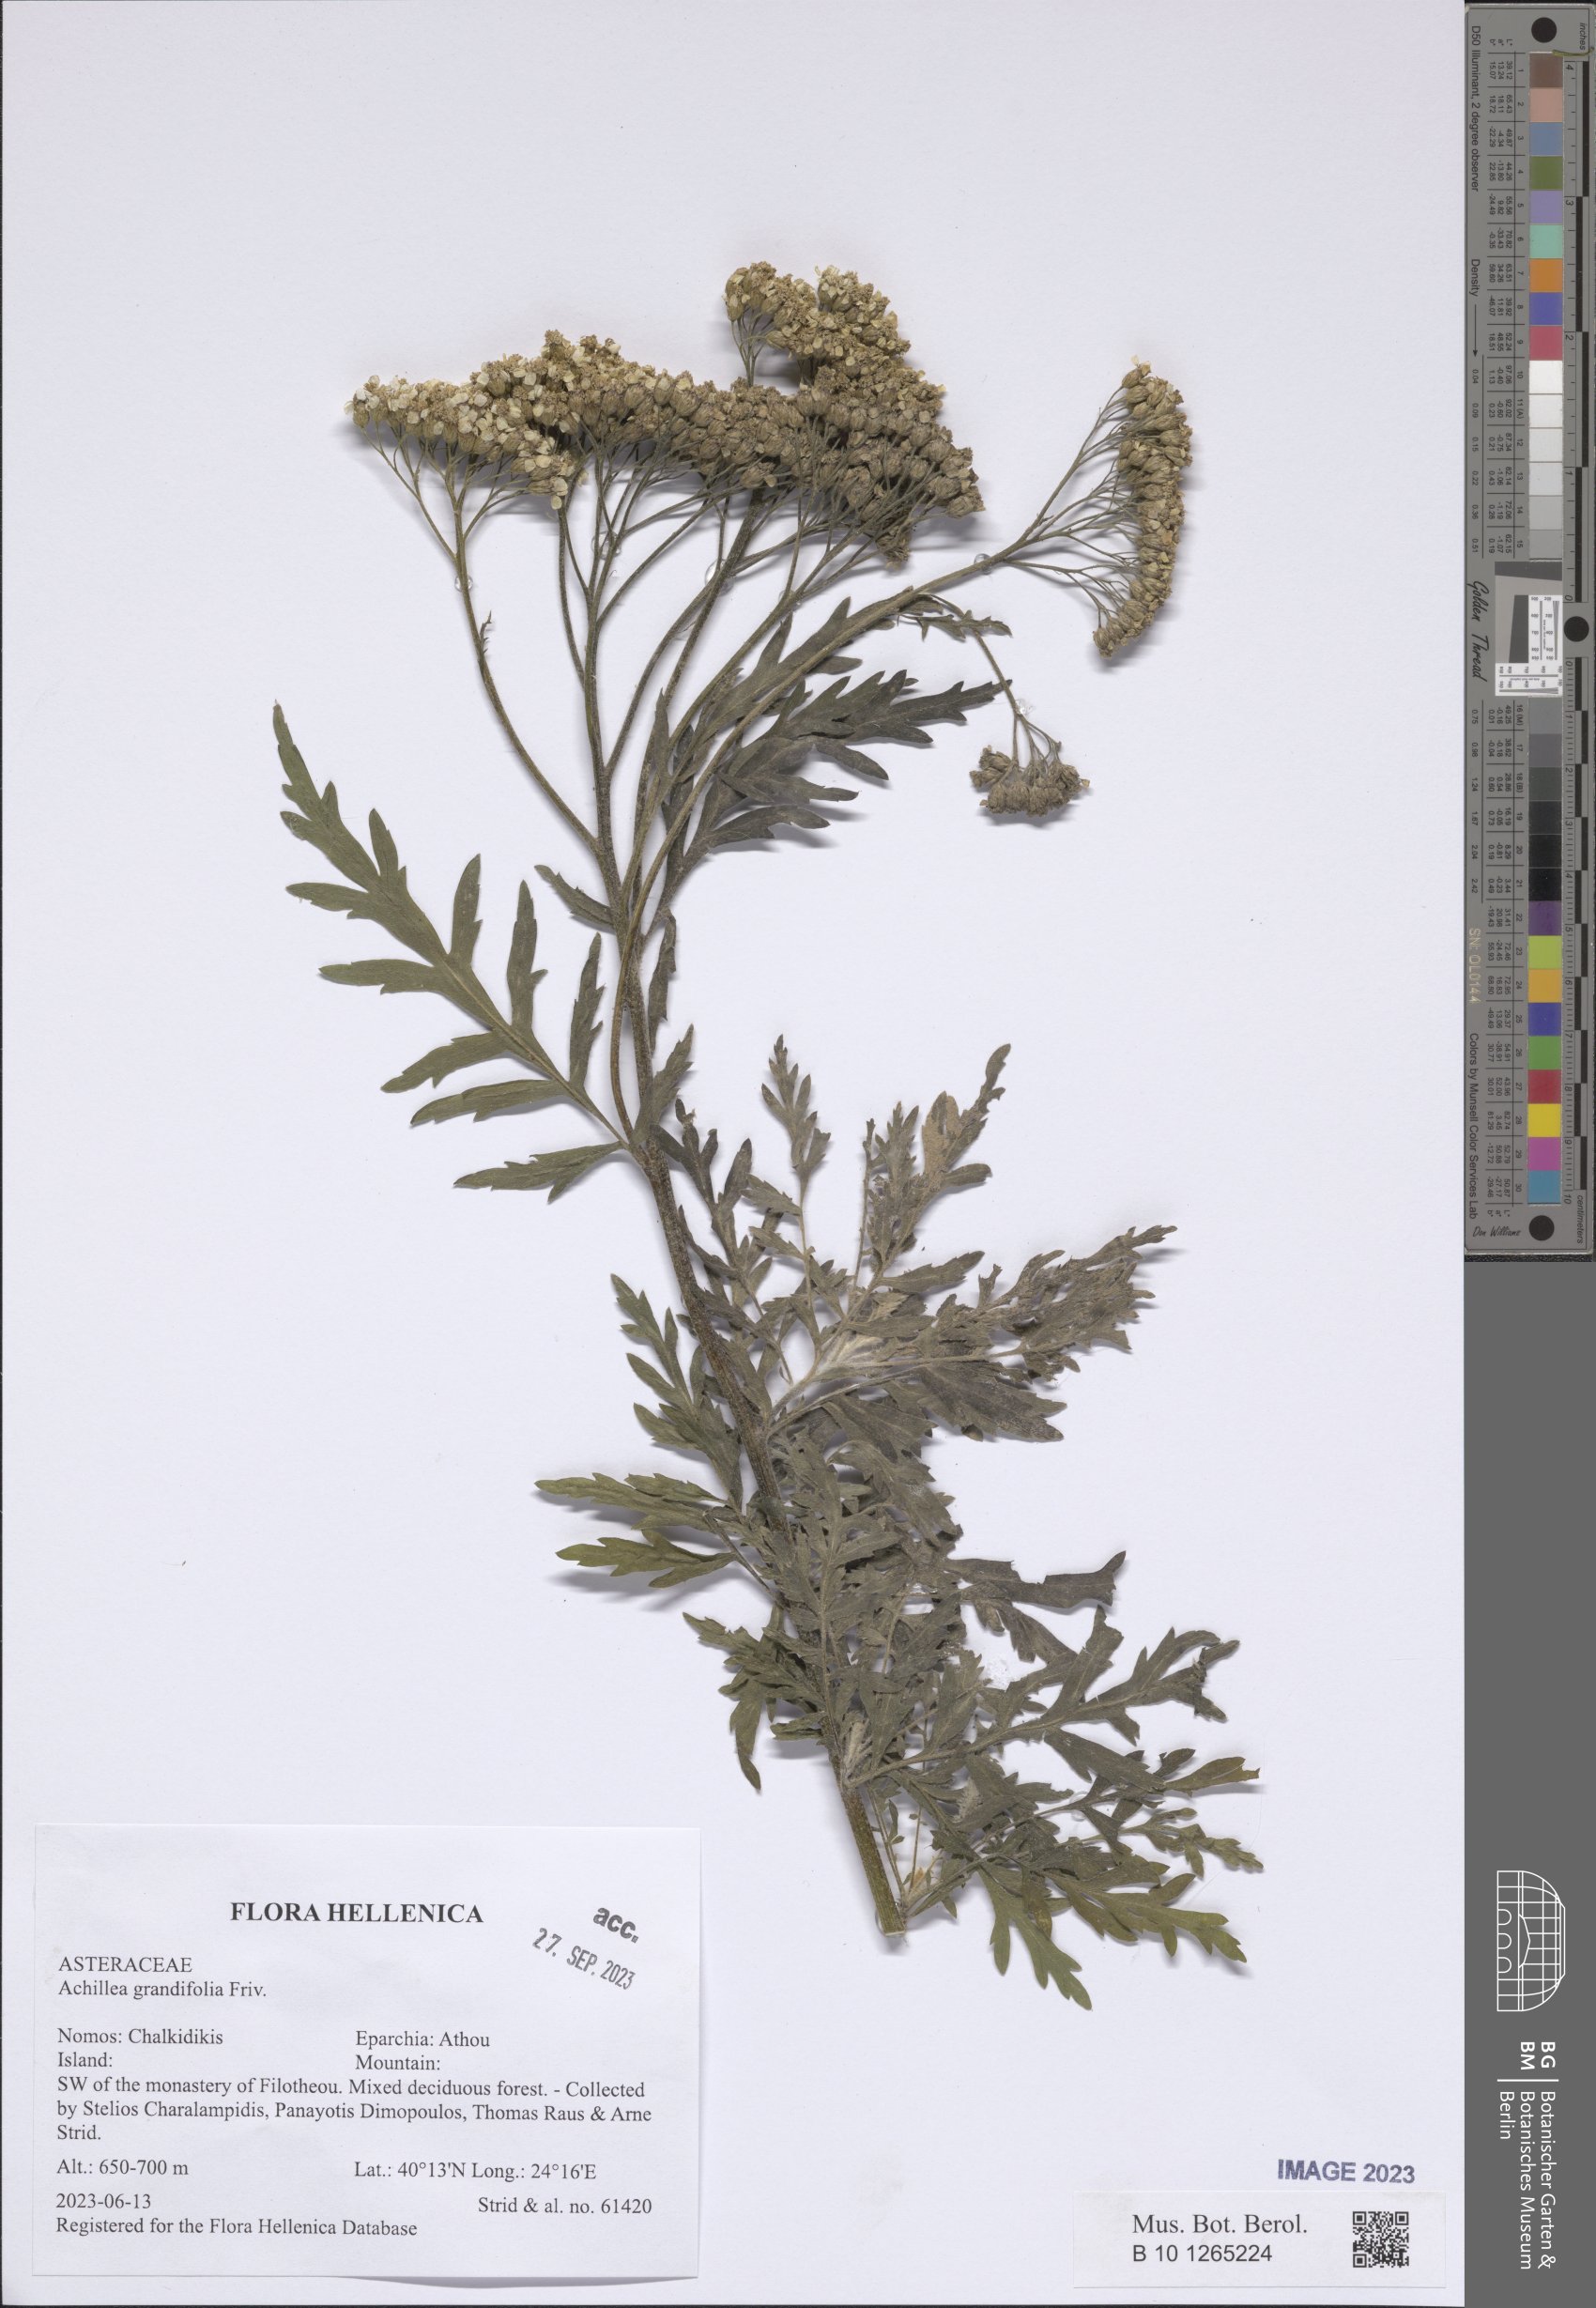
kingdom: Plantae
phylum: Tracheophyta
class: Magnoliopsida
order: Asterales
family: Asteraceae
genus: Achillea
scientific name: Achillea grandifolia
